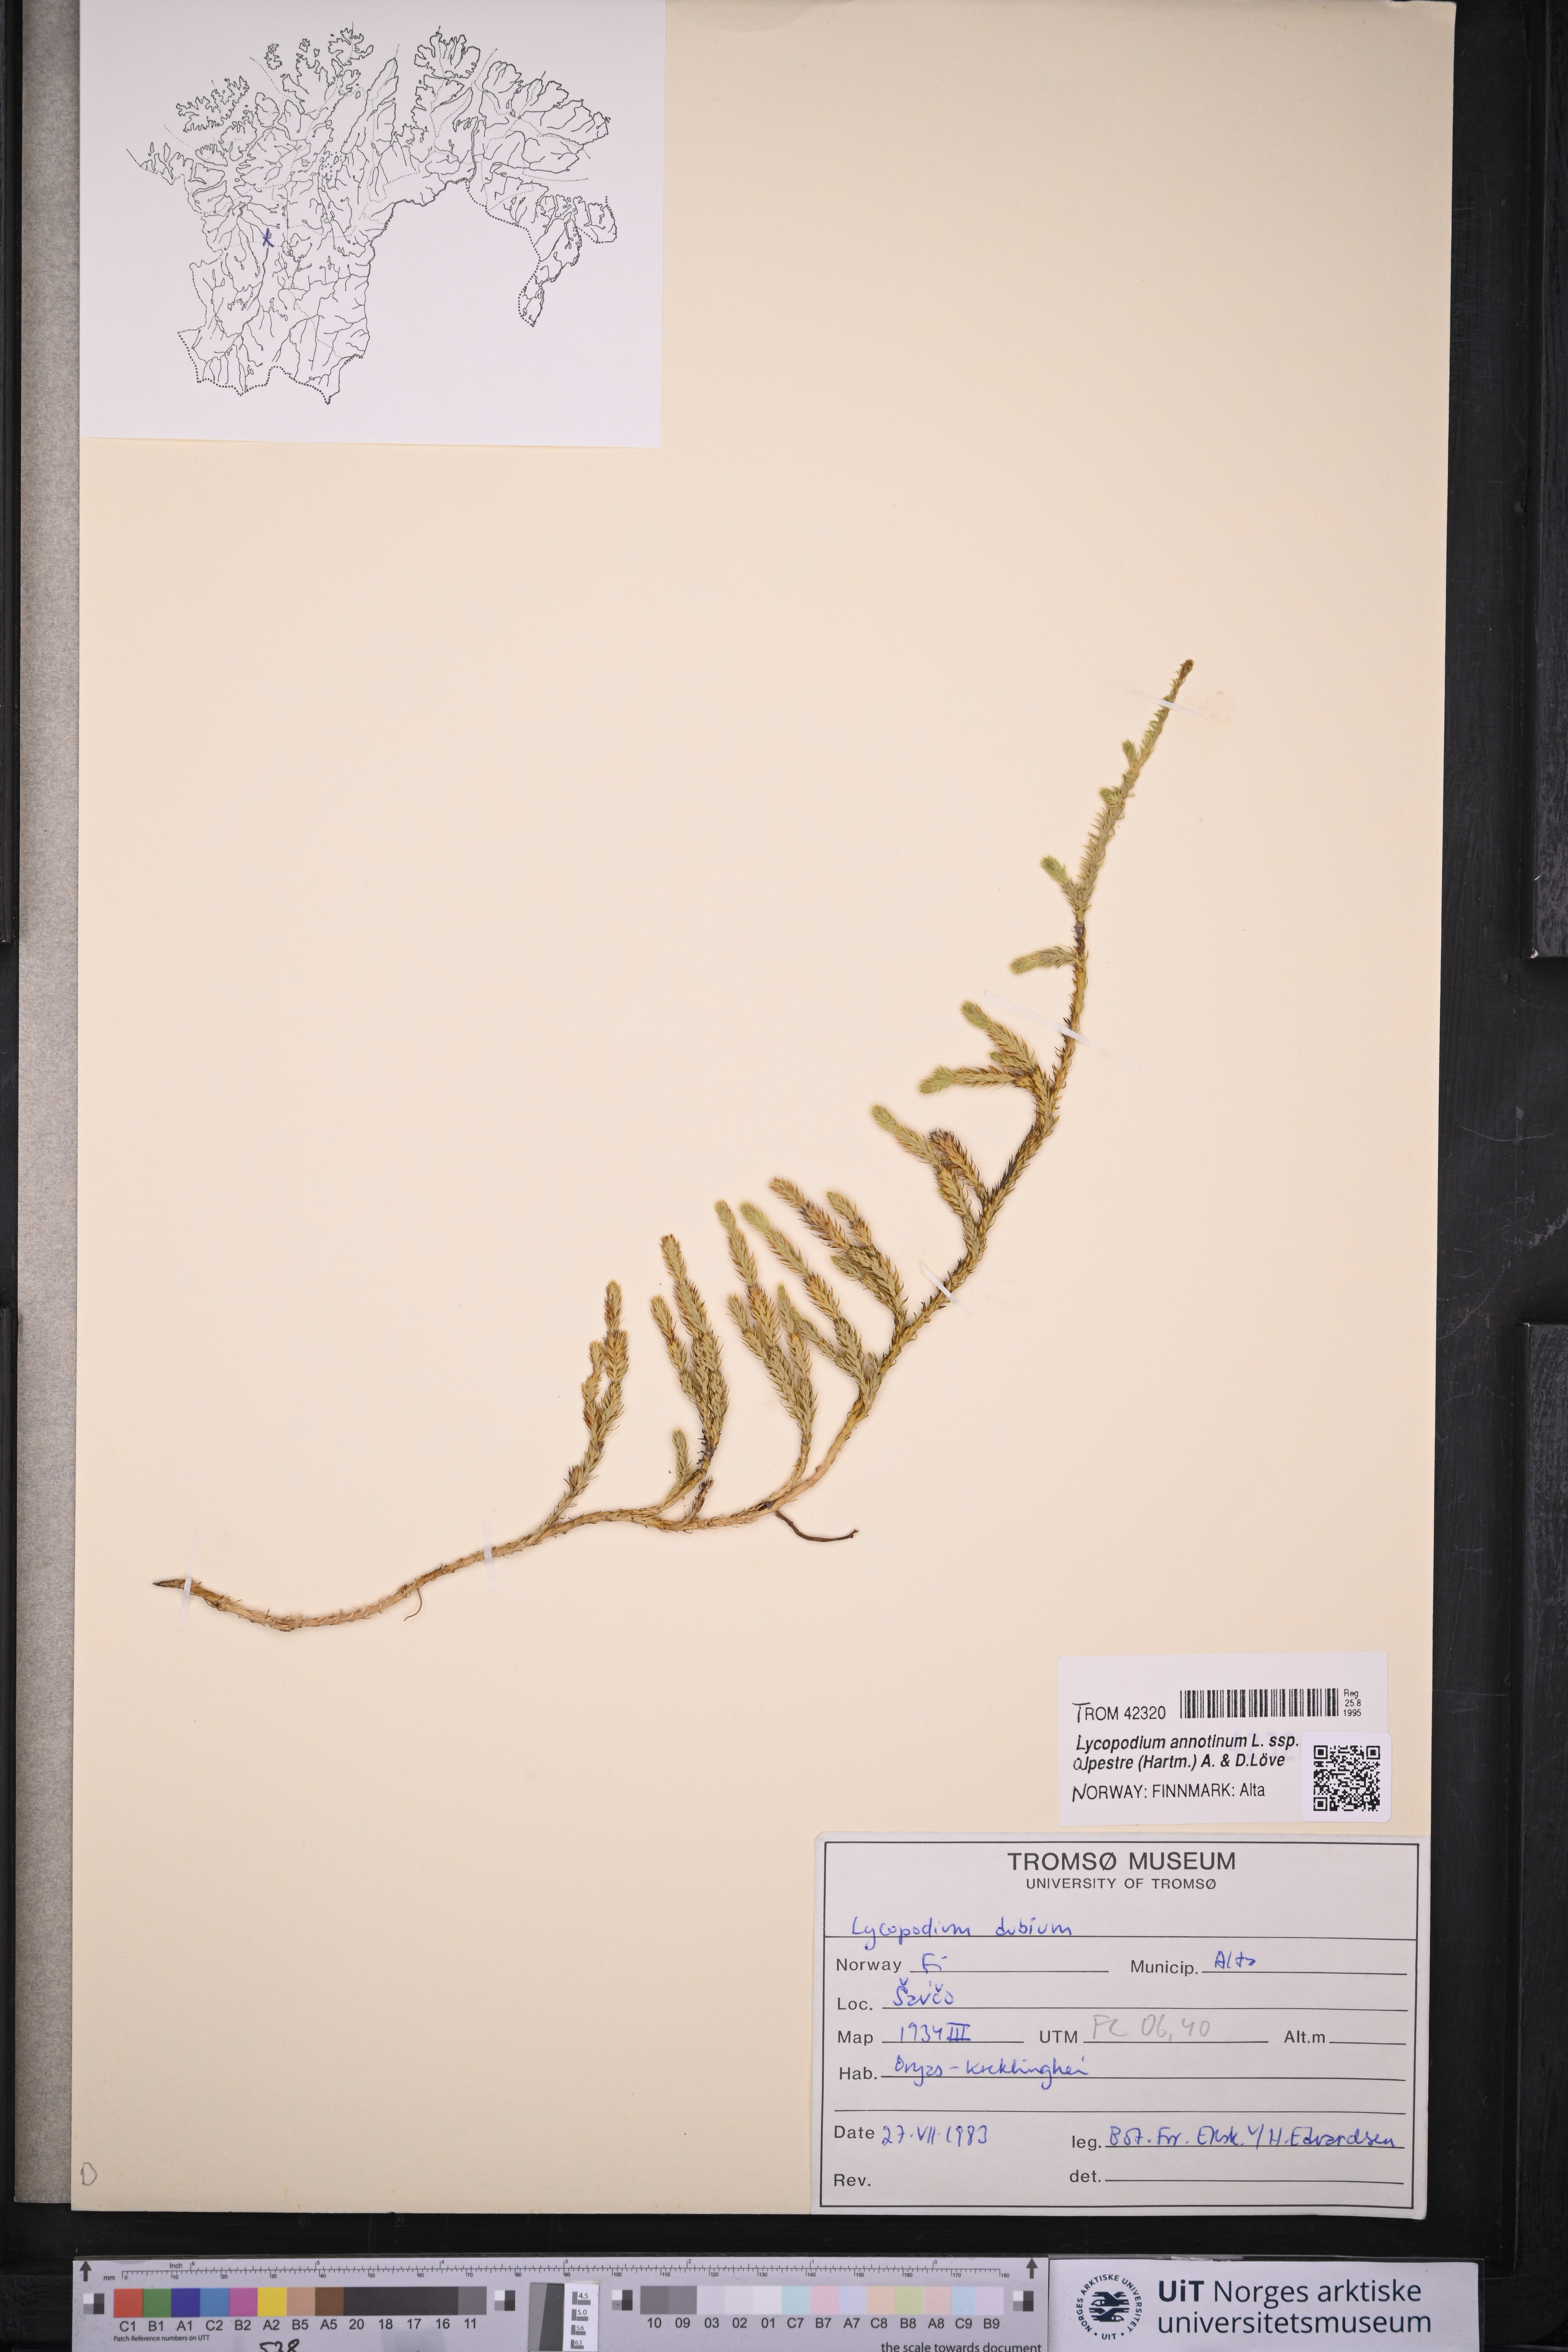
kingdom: Plantae
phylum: Tracheophyta
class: Lycopodiopsida
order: Lycopodiales
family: Lycopodiaceae
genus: Spinulum
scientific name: Spinulum annotinum
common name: Interrupted club-moss
